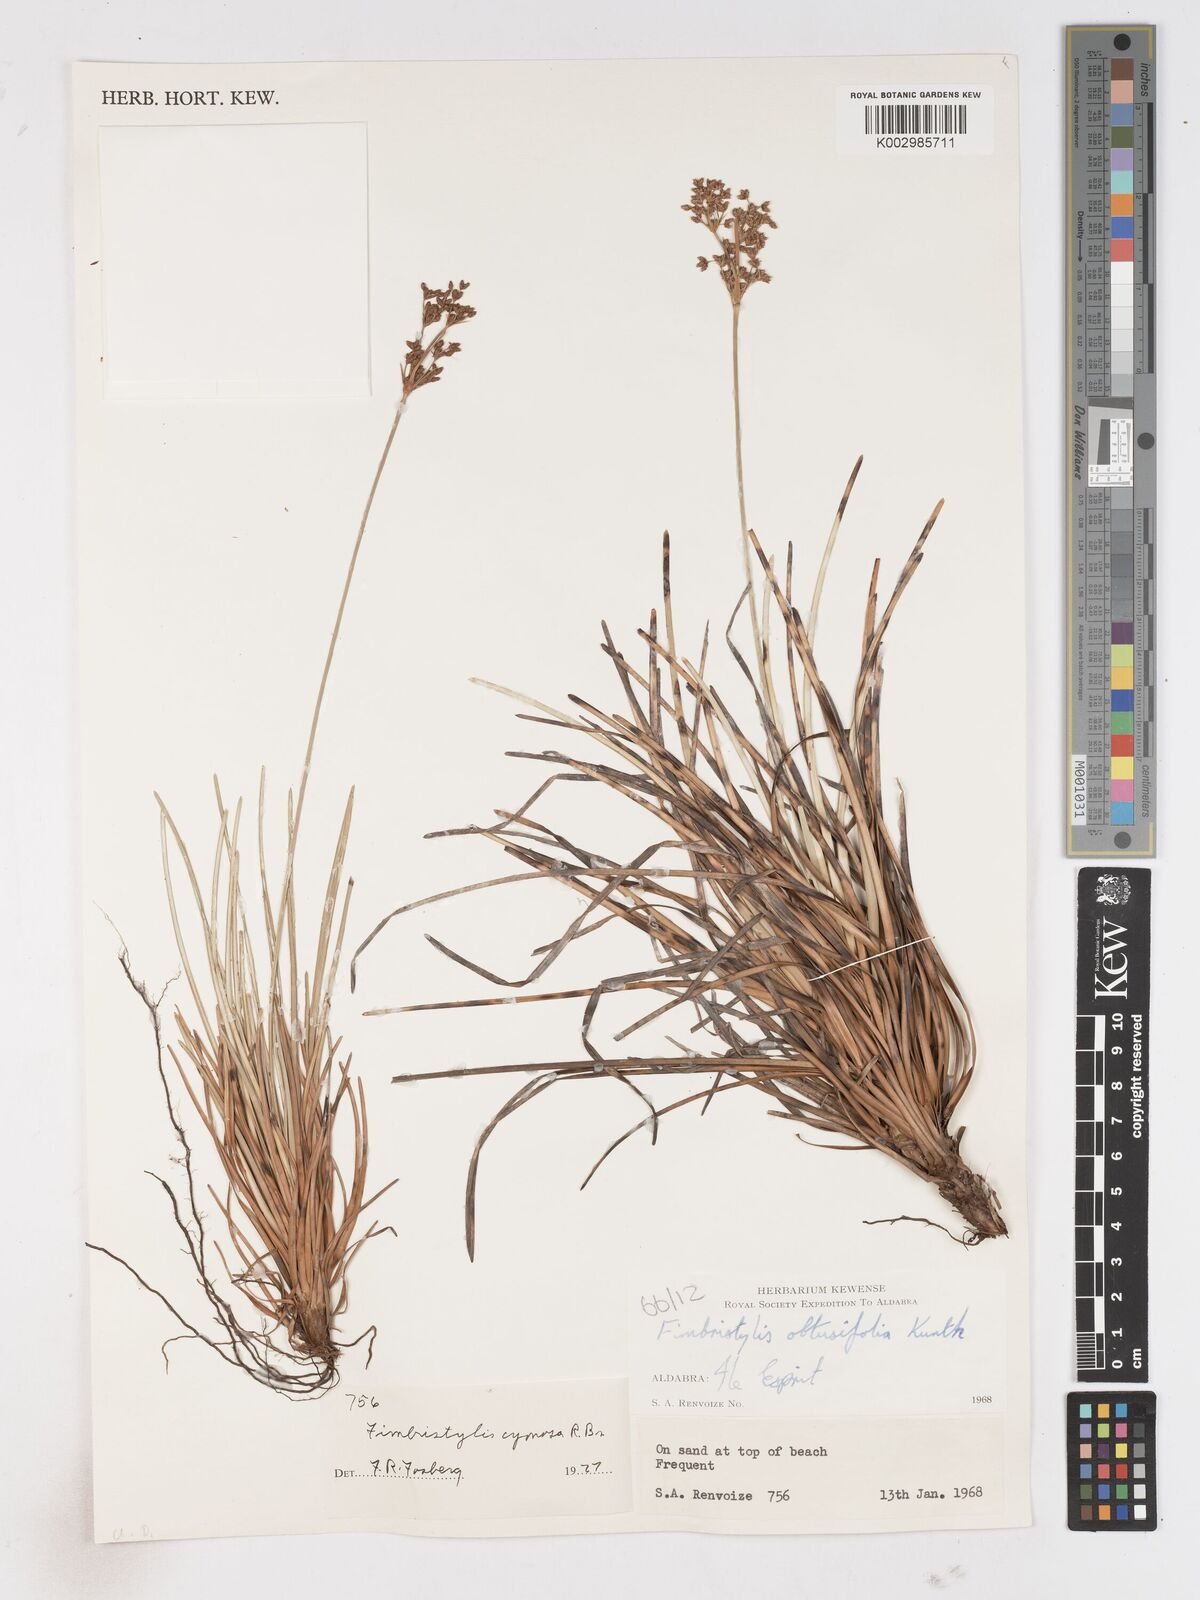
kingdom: Plantae
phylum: Tracheophyta
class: Liliopsida
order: Poales
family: Cyperaceae
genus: Fimbristylis
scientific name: Fimbristylis cymosa
